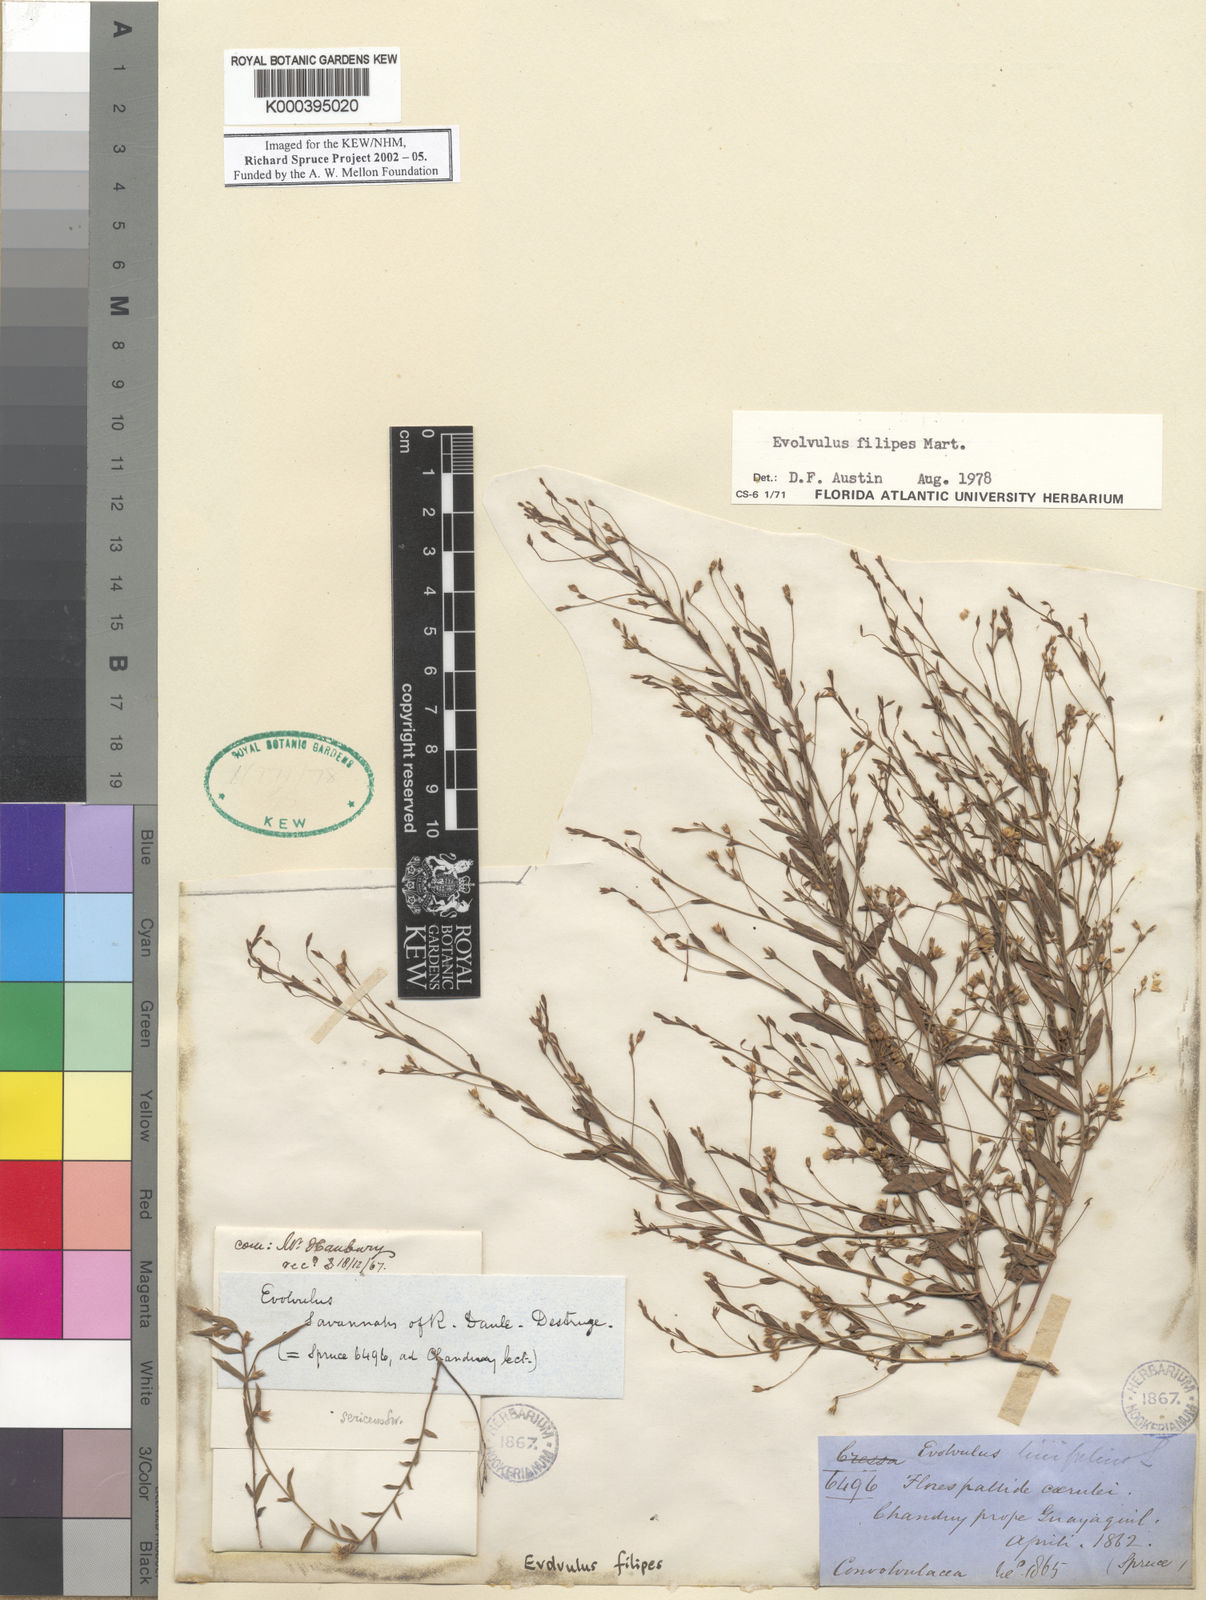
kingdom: Plantae
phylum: Tracheophyta
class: Magnoliopsida
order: Solanales
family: Convolvulaceae
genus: Evolvulus
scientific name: Evolvulus filipes
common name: Maryland dwarf morning-glory
